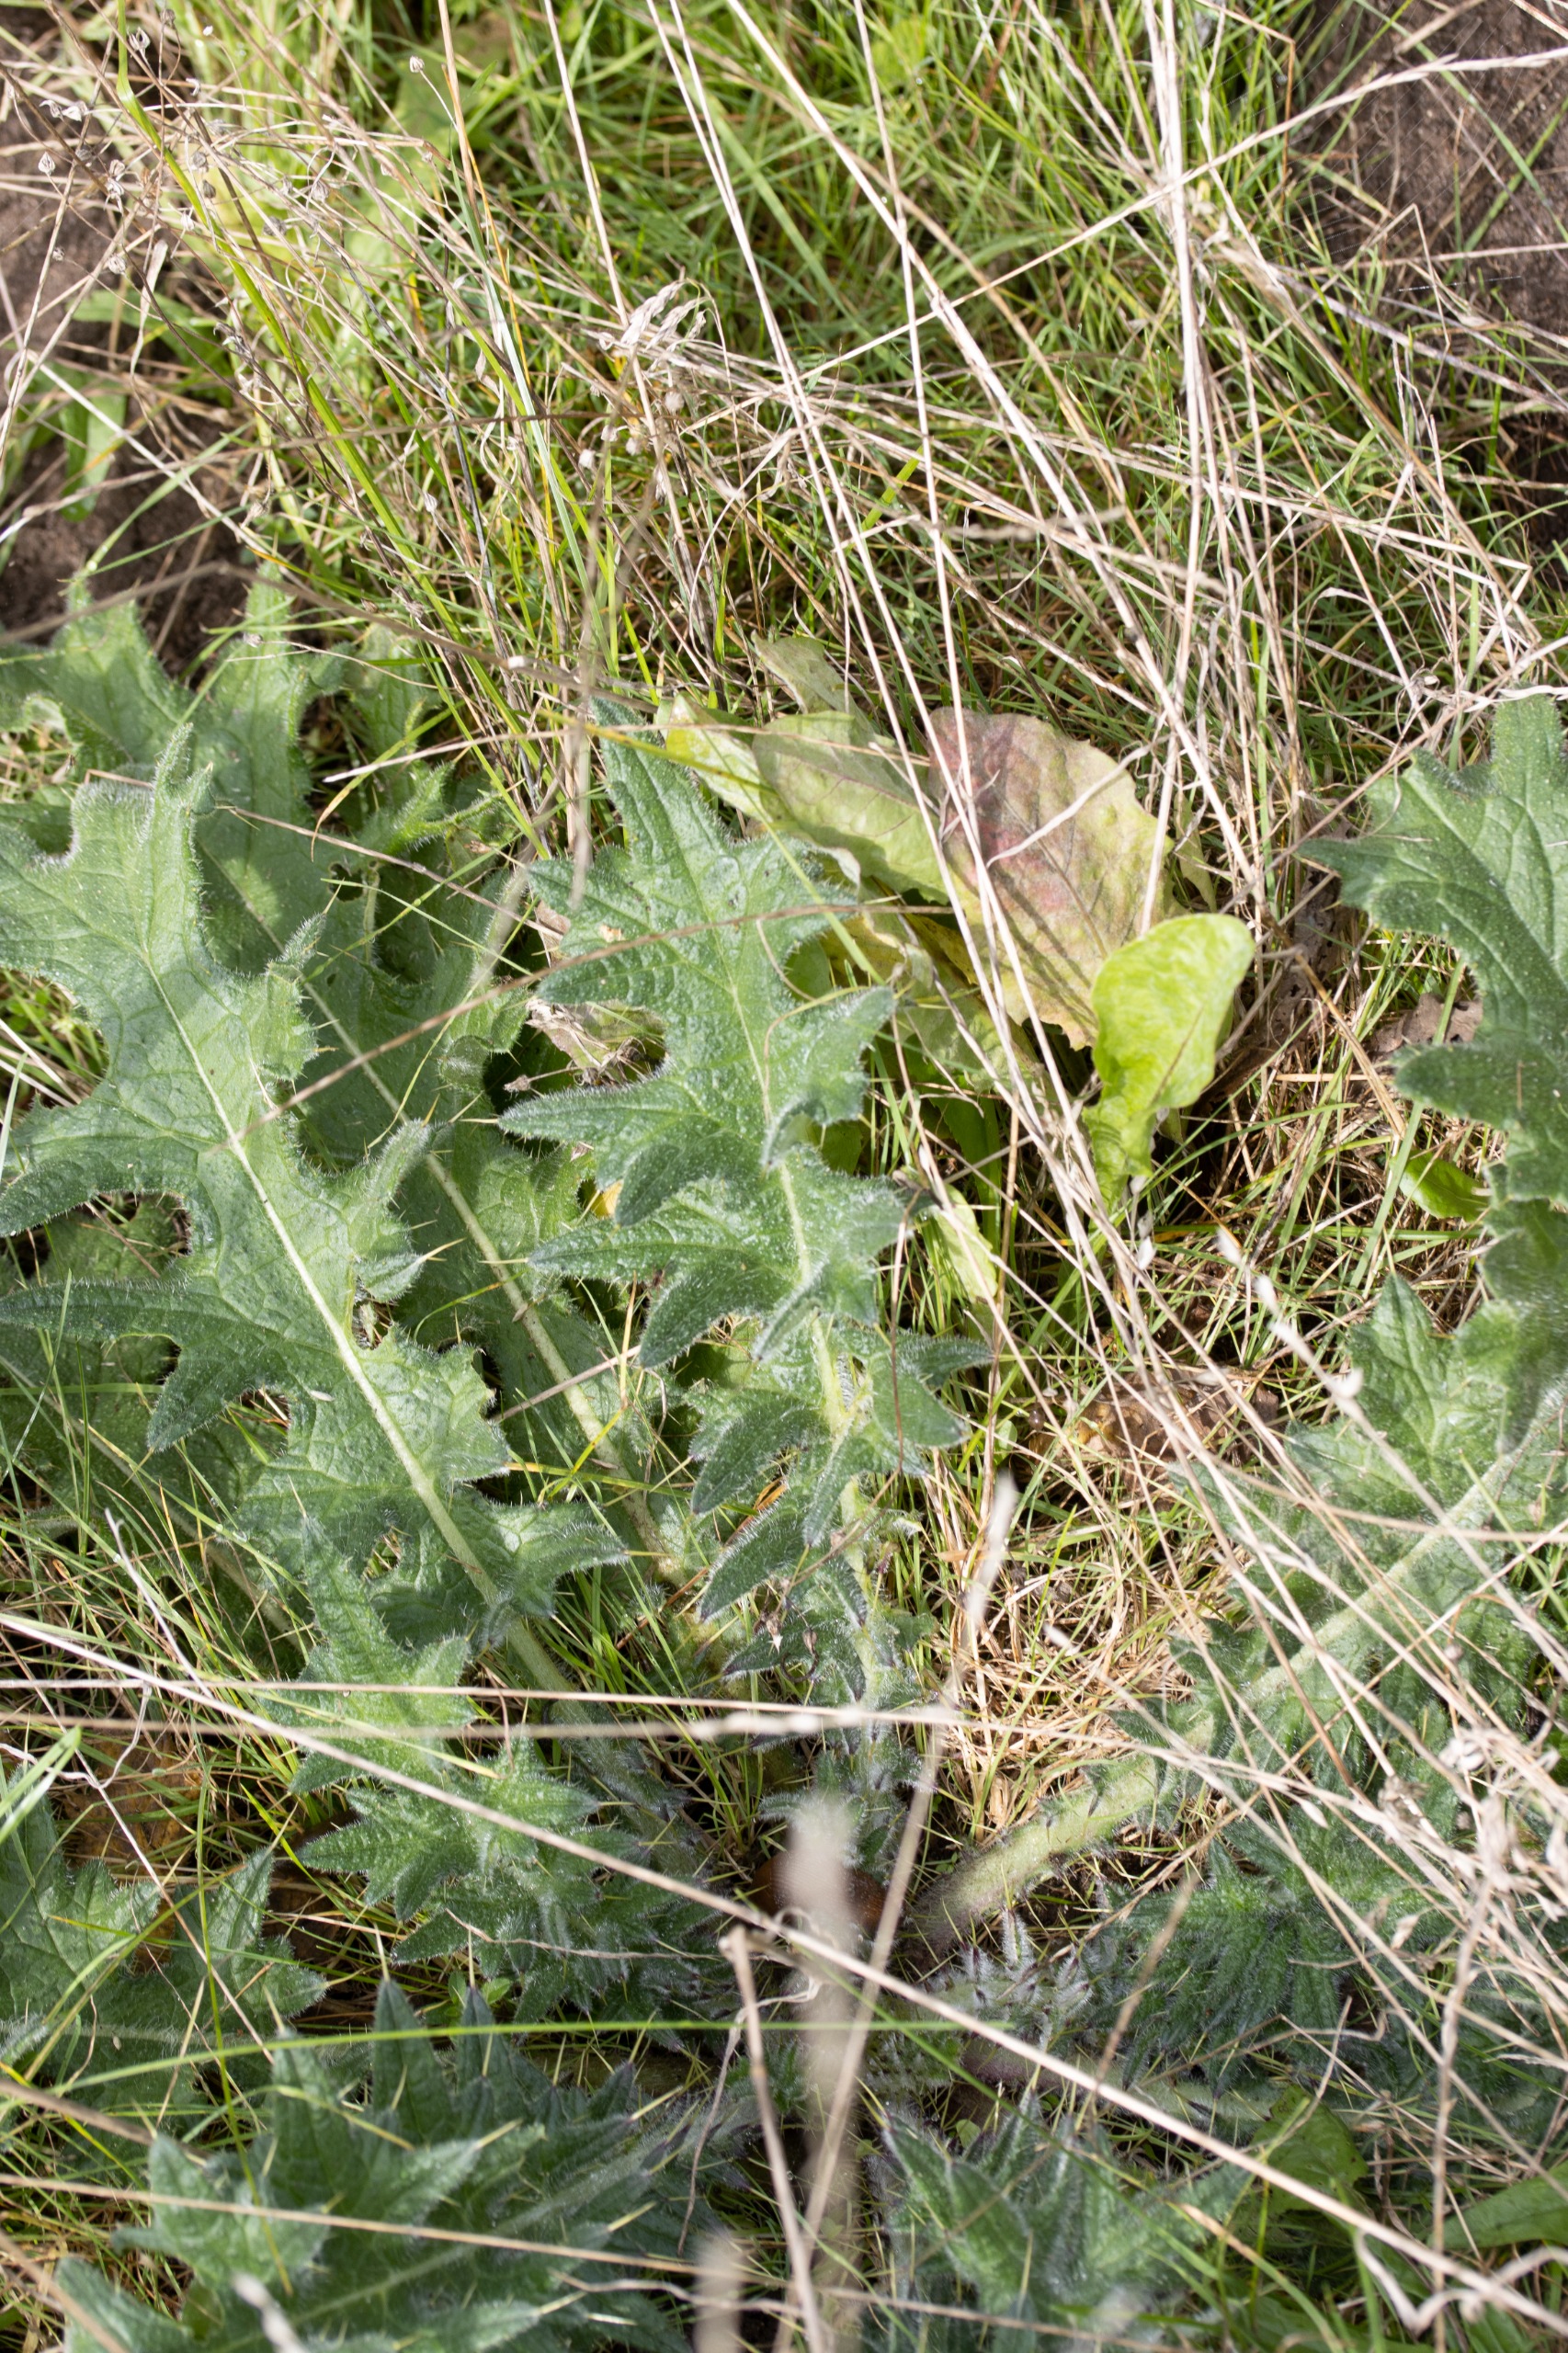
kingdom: Plantae
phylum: Tracheophyta
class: Magnoliopsida
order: Asterales
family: Asteraceae
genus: Cirsium
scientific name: Cirsium vulgare
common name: Horse-tidsel
